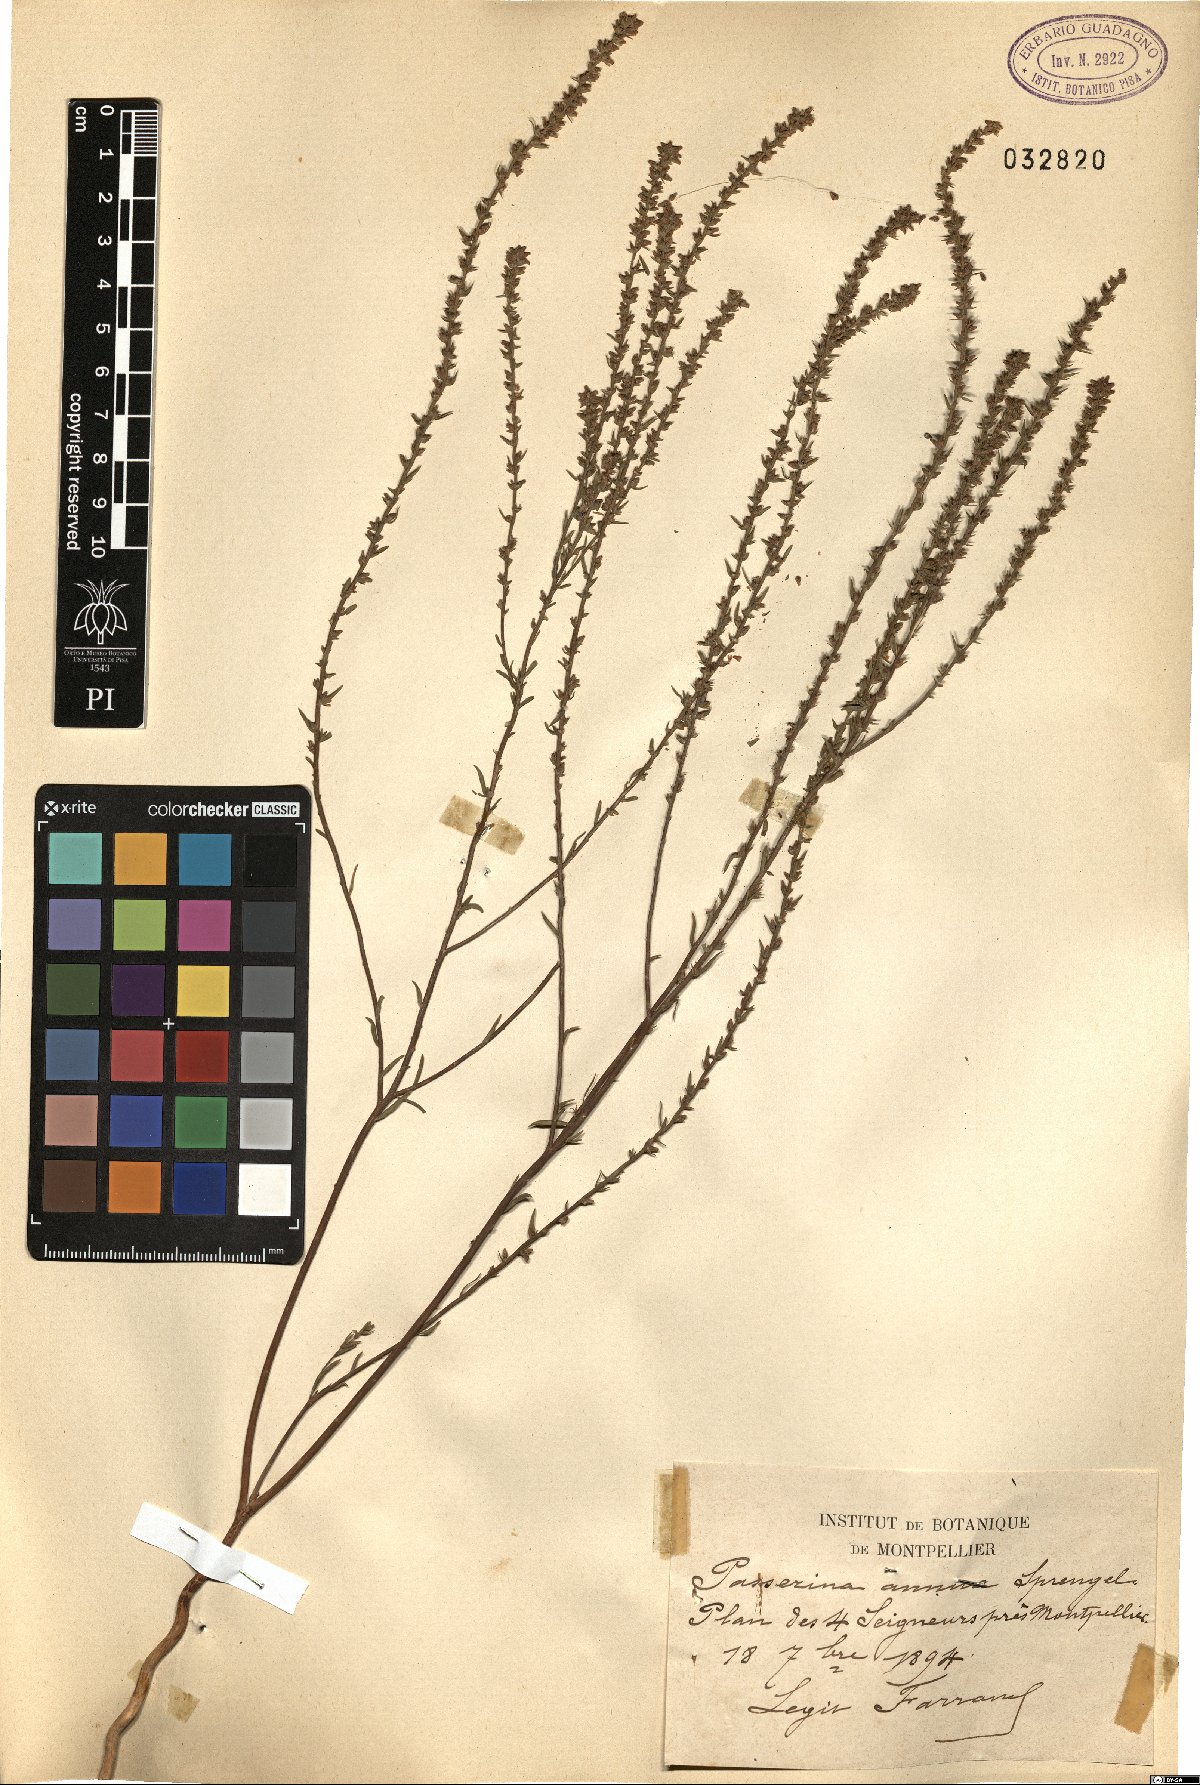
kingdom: Plantae
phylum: Tracheophyta
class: Magnoliopsida
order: Malvales
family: Thymelaeaceae
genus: Thymelaea
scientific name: Thymelaea passerina
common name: Annual thymelaea
